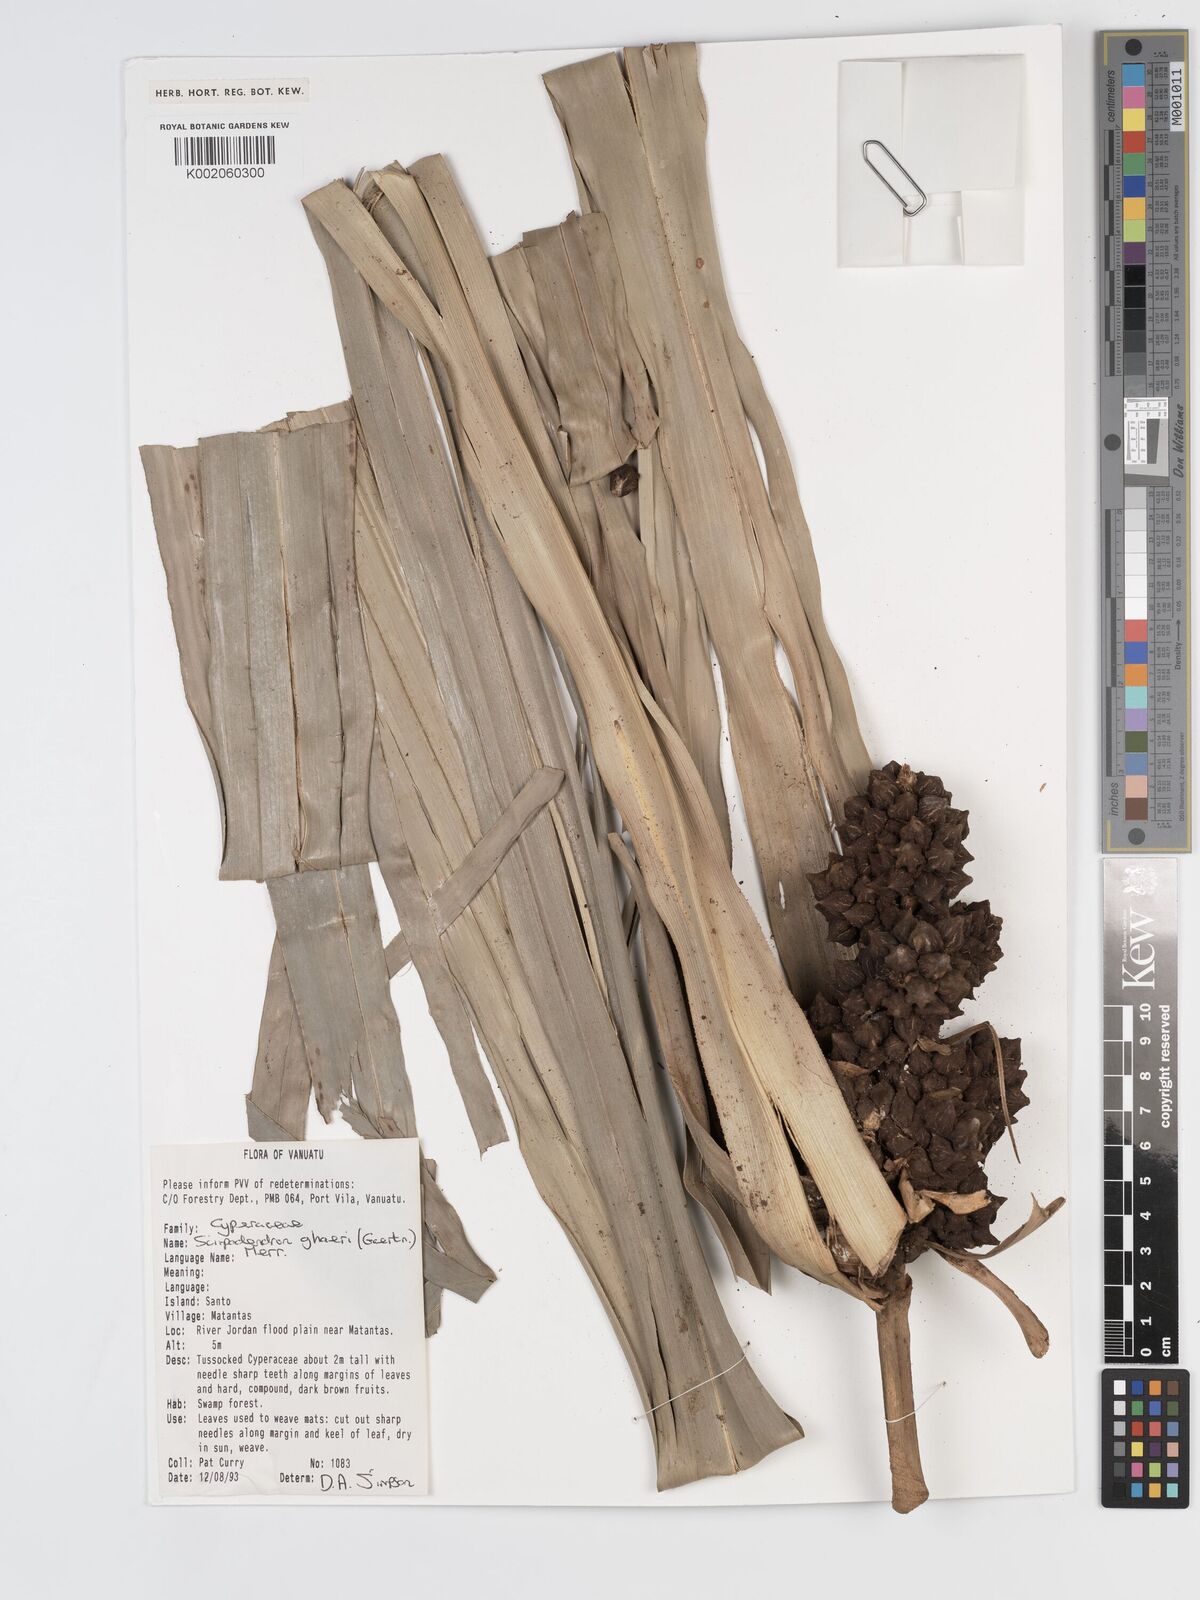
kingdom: Plantae
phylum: Tracheophyta
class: Liliopsida
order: Poales
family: Cyperaceae
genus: Scirpodendron
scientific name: Scirpodendron ghaeri
